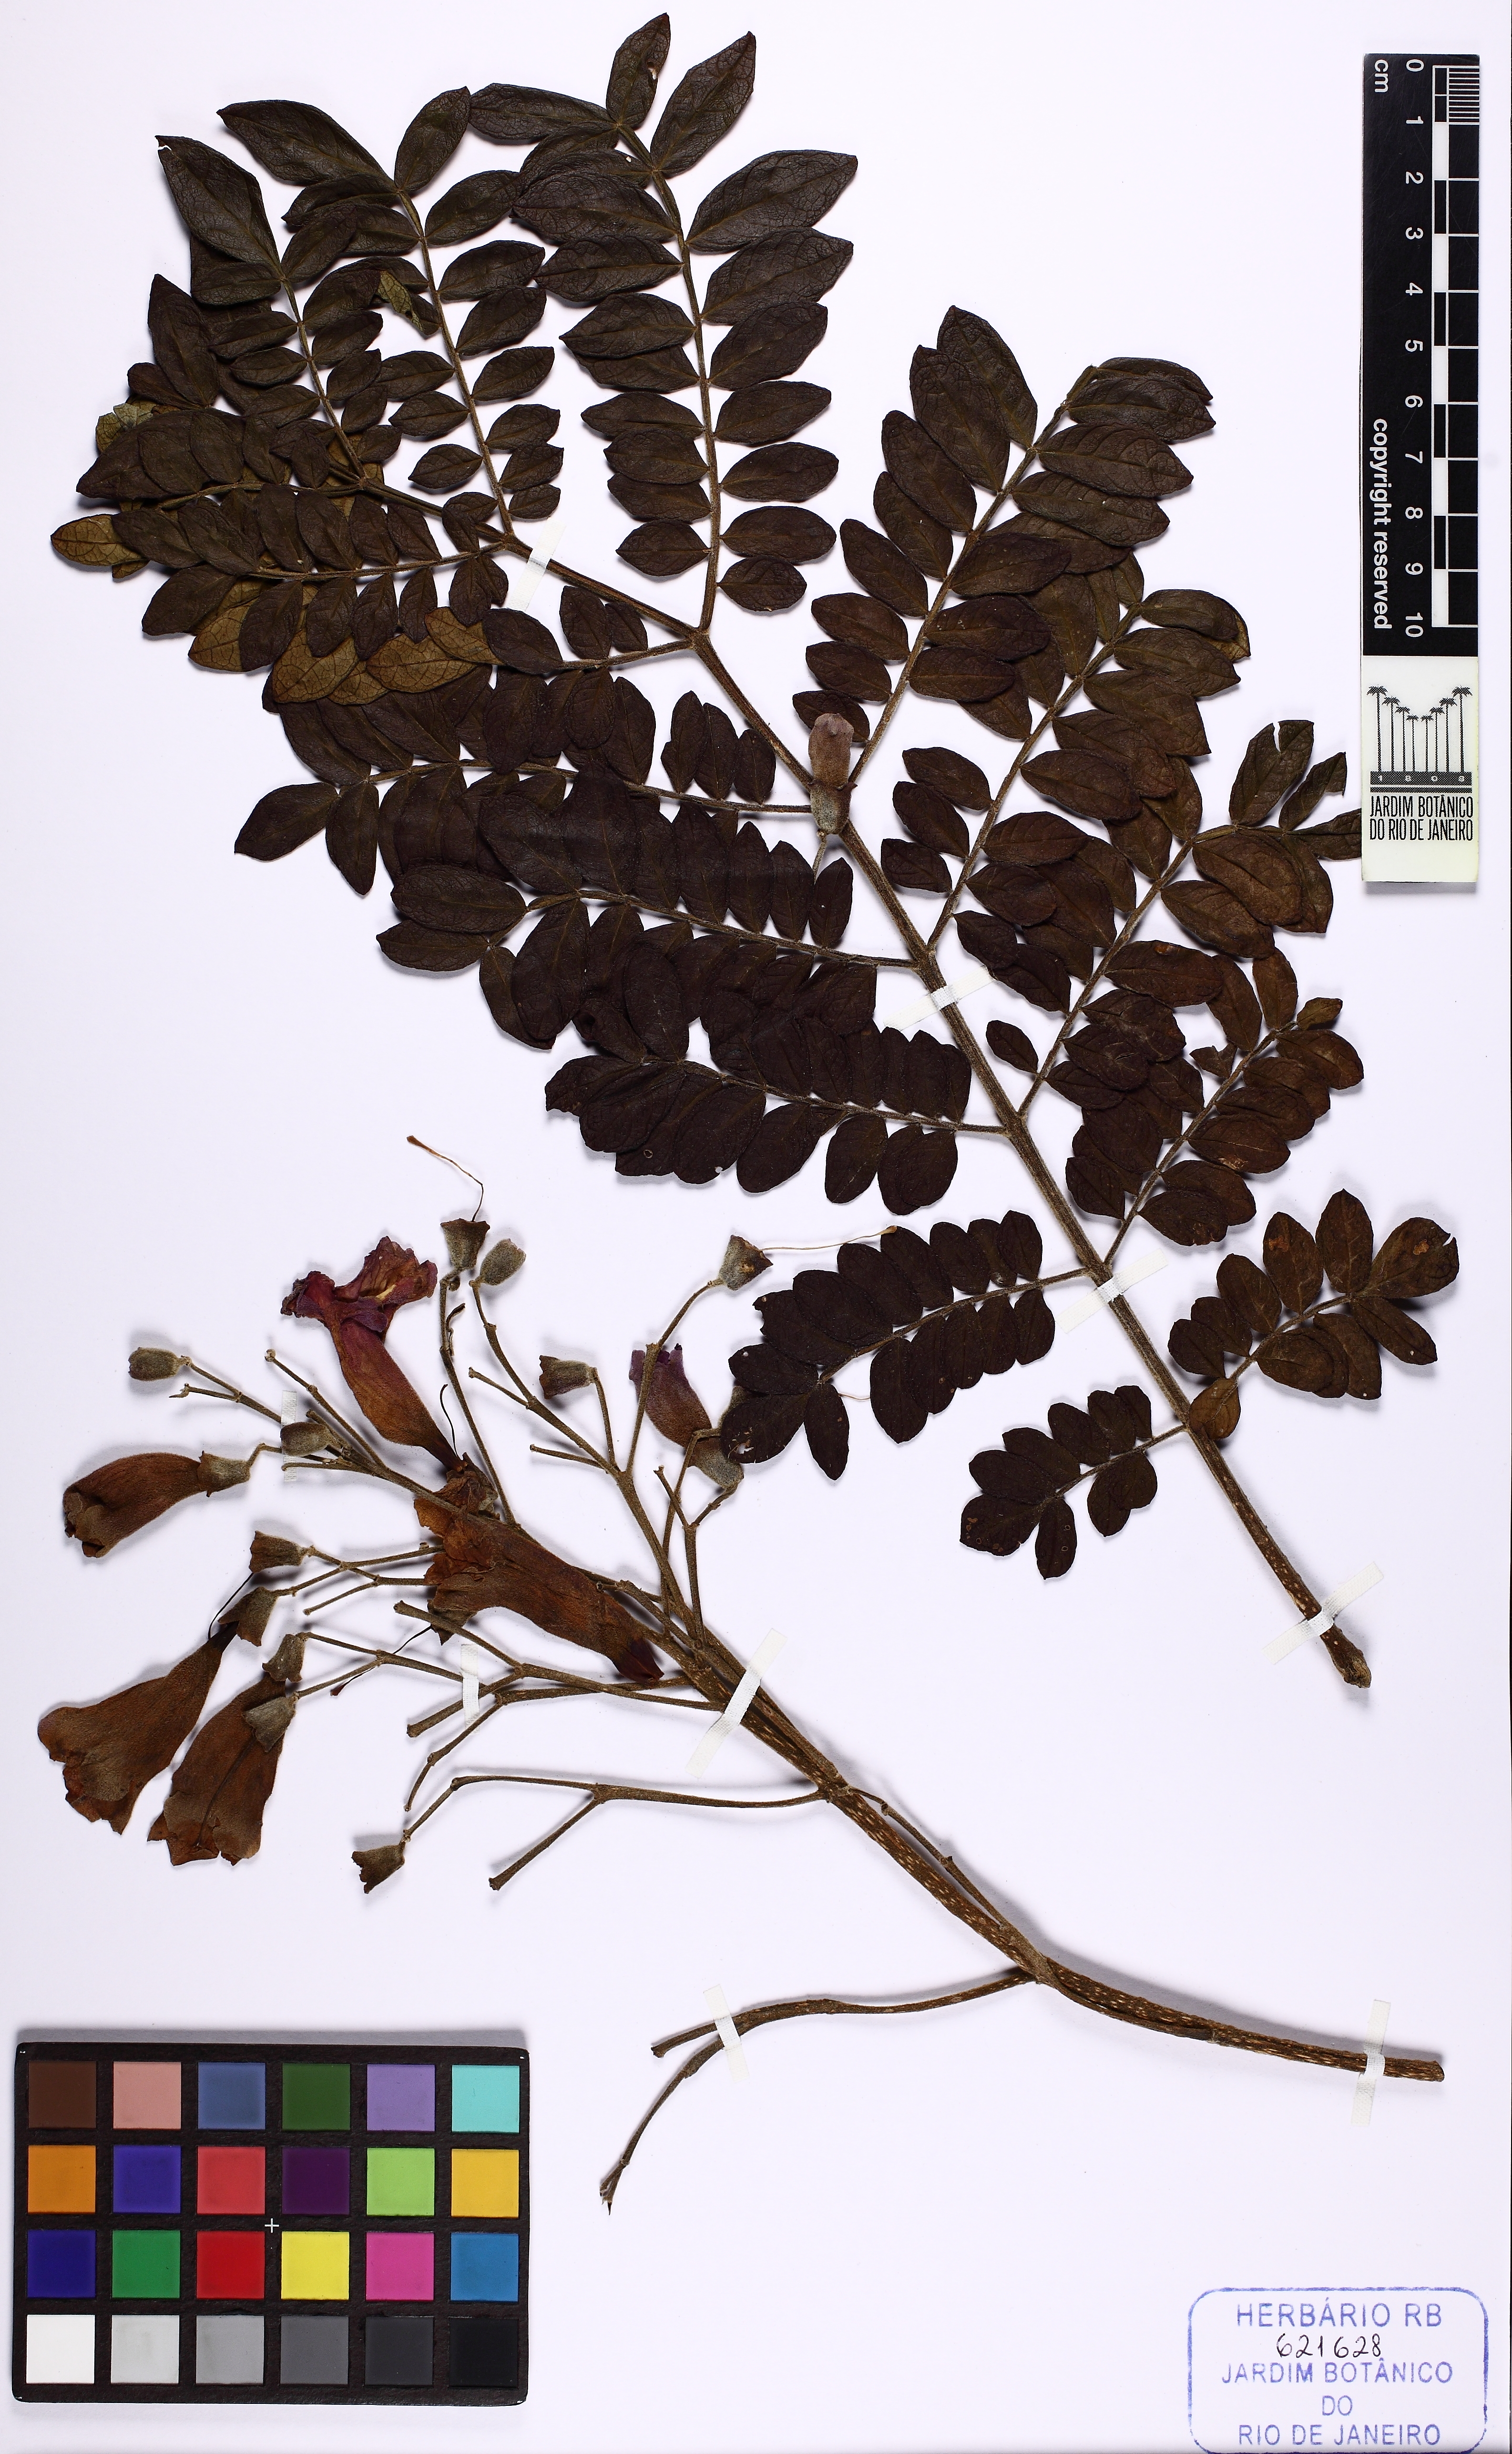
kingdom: Plantae
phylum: Tracheophyta
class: Magnoliopsida
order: Lamiales
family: Bignoniaceae
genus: Jacaranda
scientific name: Jacaranda
